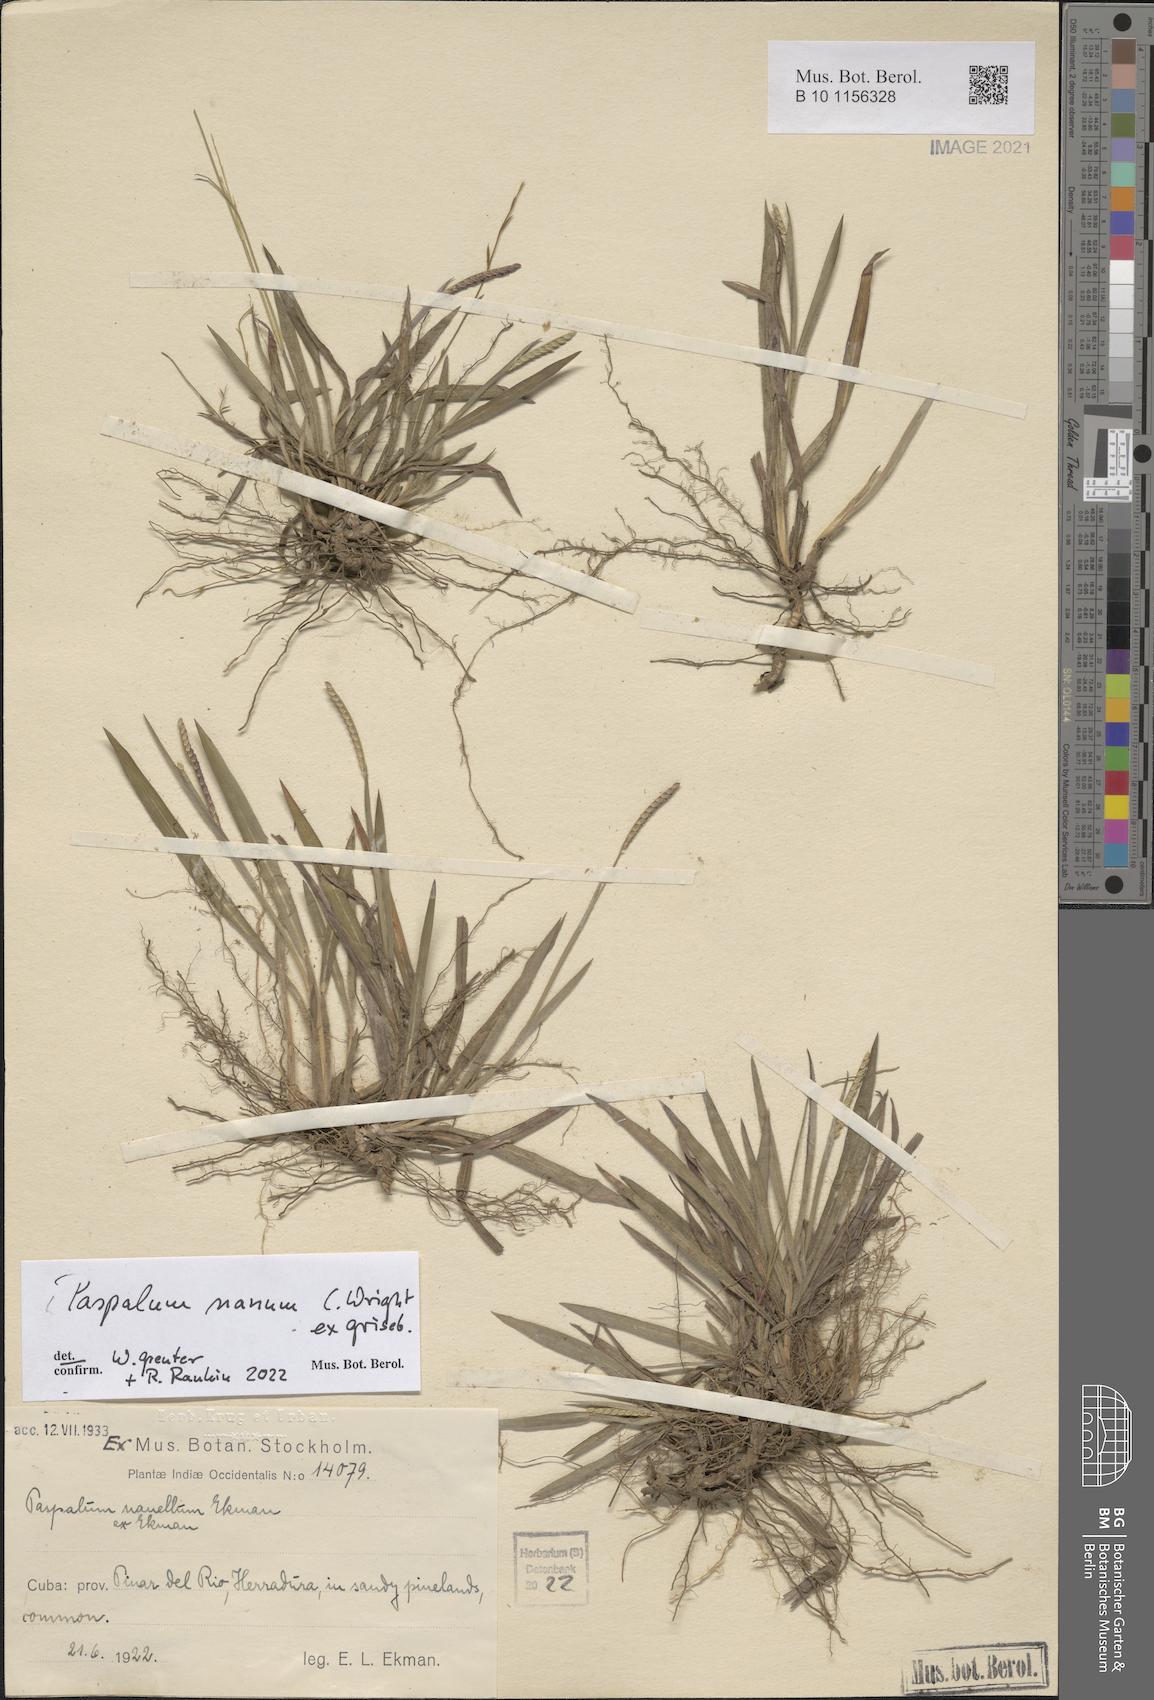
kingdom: Plantae
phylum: Tracheophyta
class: Liliopsida
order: Poales
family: Poaceae
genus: Paspalum
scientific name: Paspalum nanum
